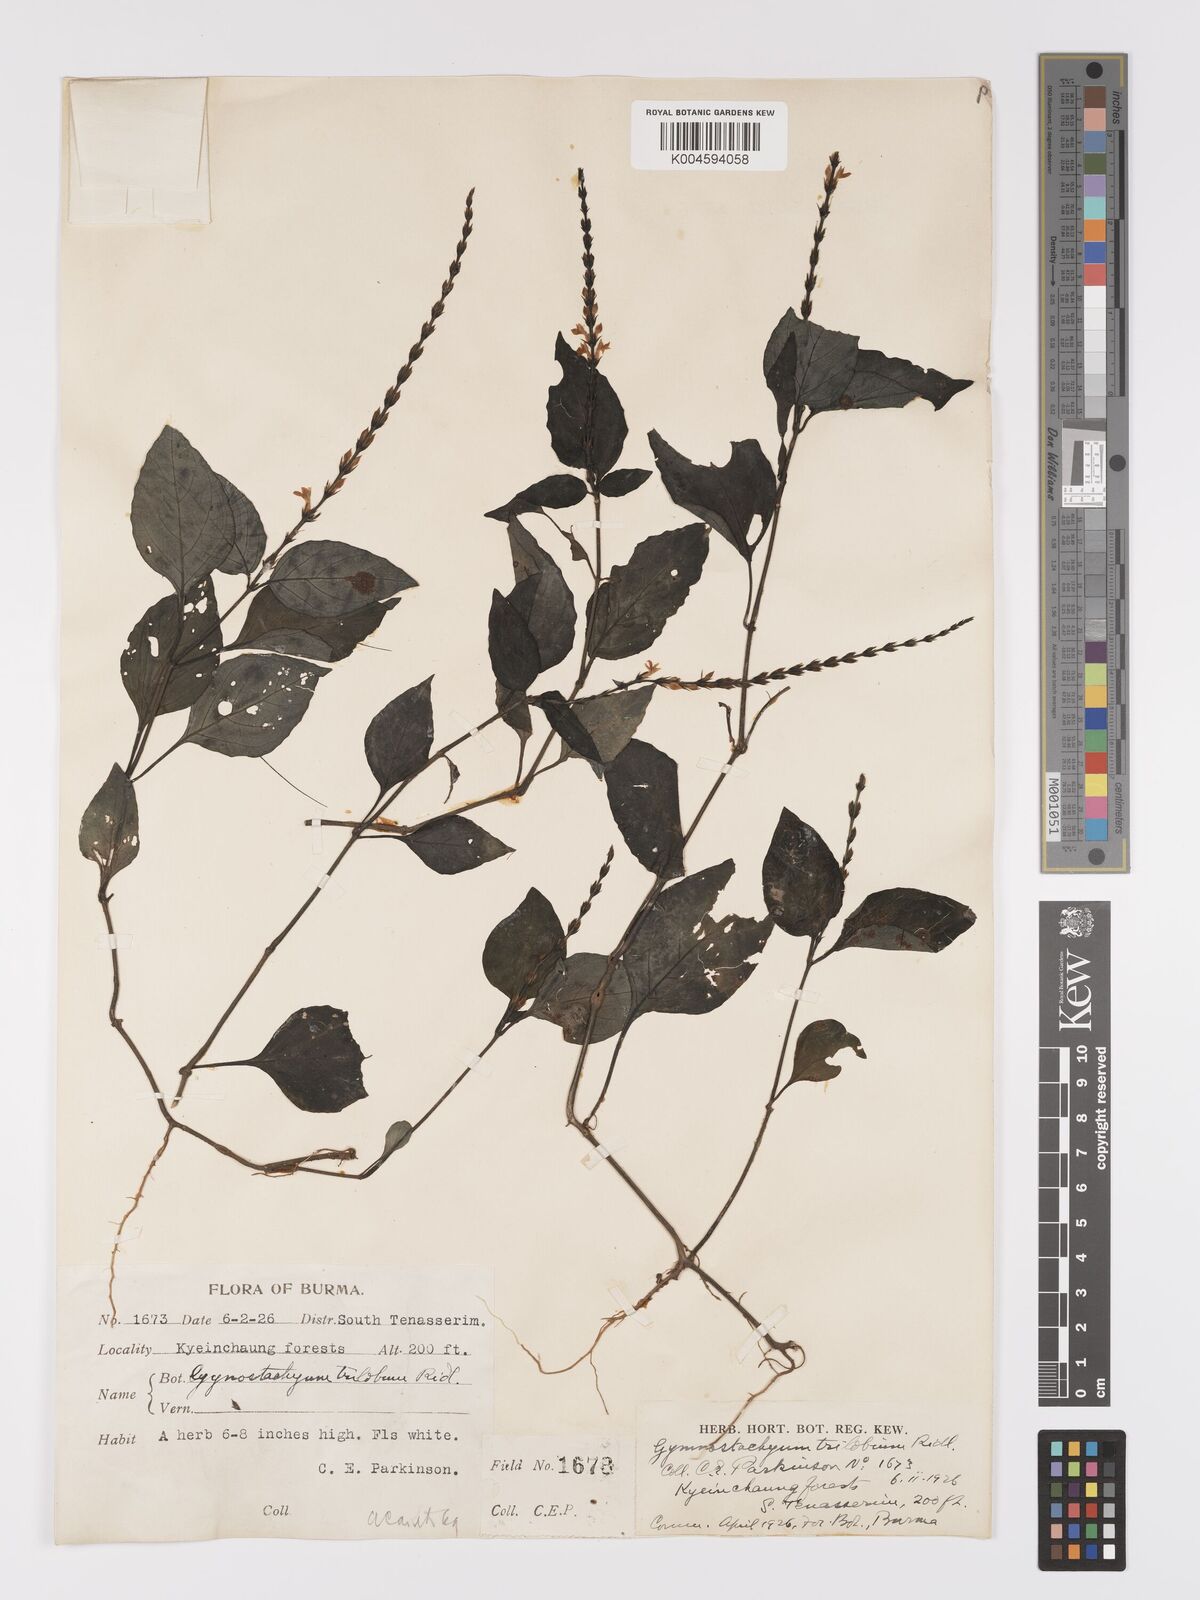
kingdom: Plantae
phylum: Tracheophyta
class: Magnoliopsida
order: Lamiales
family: Acanthaceae
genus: Gymnostachyum
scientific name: Gymnostachyum trilobum
